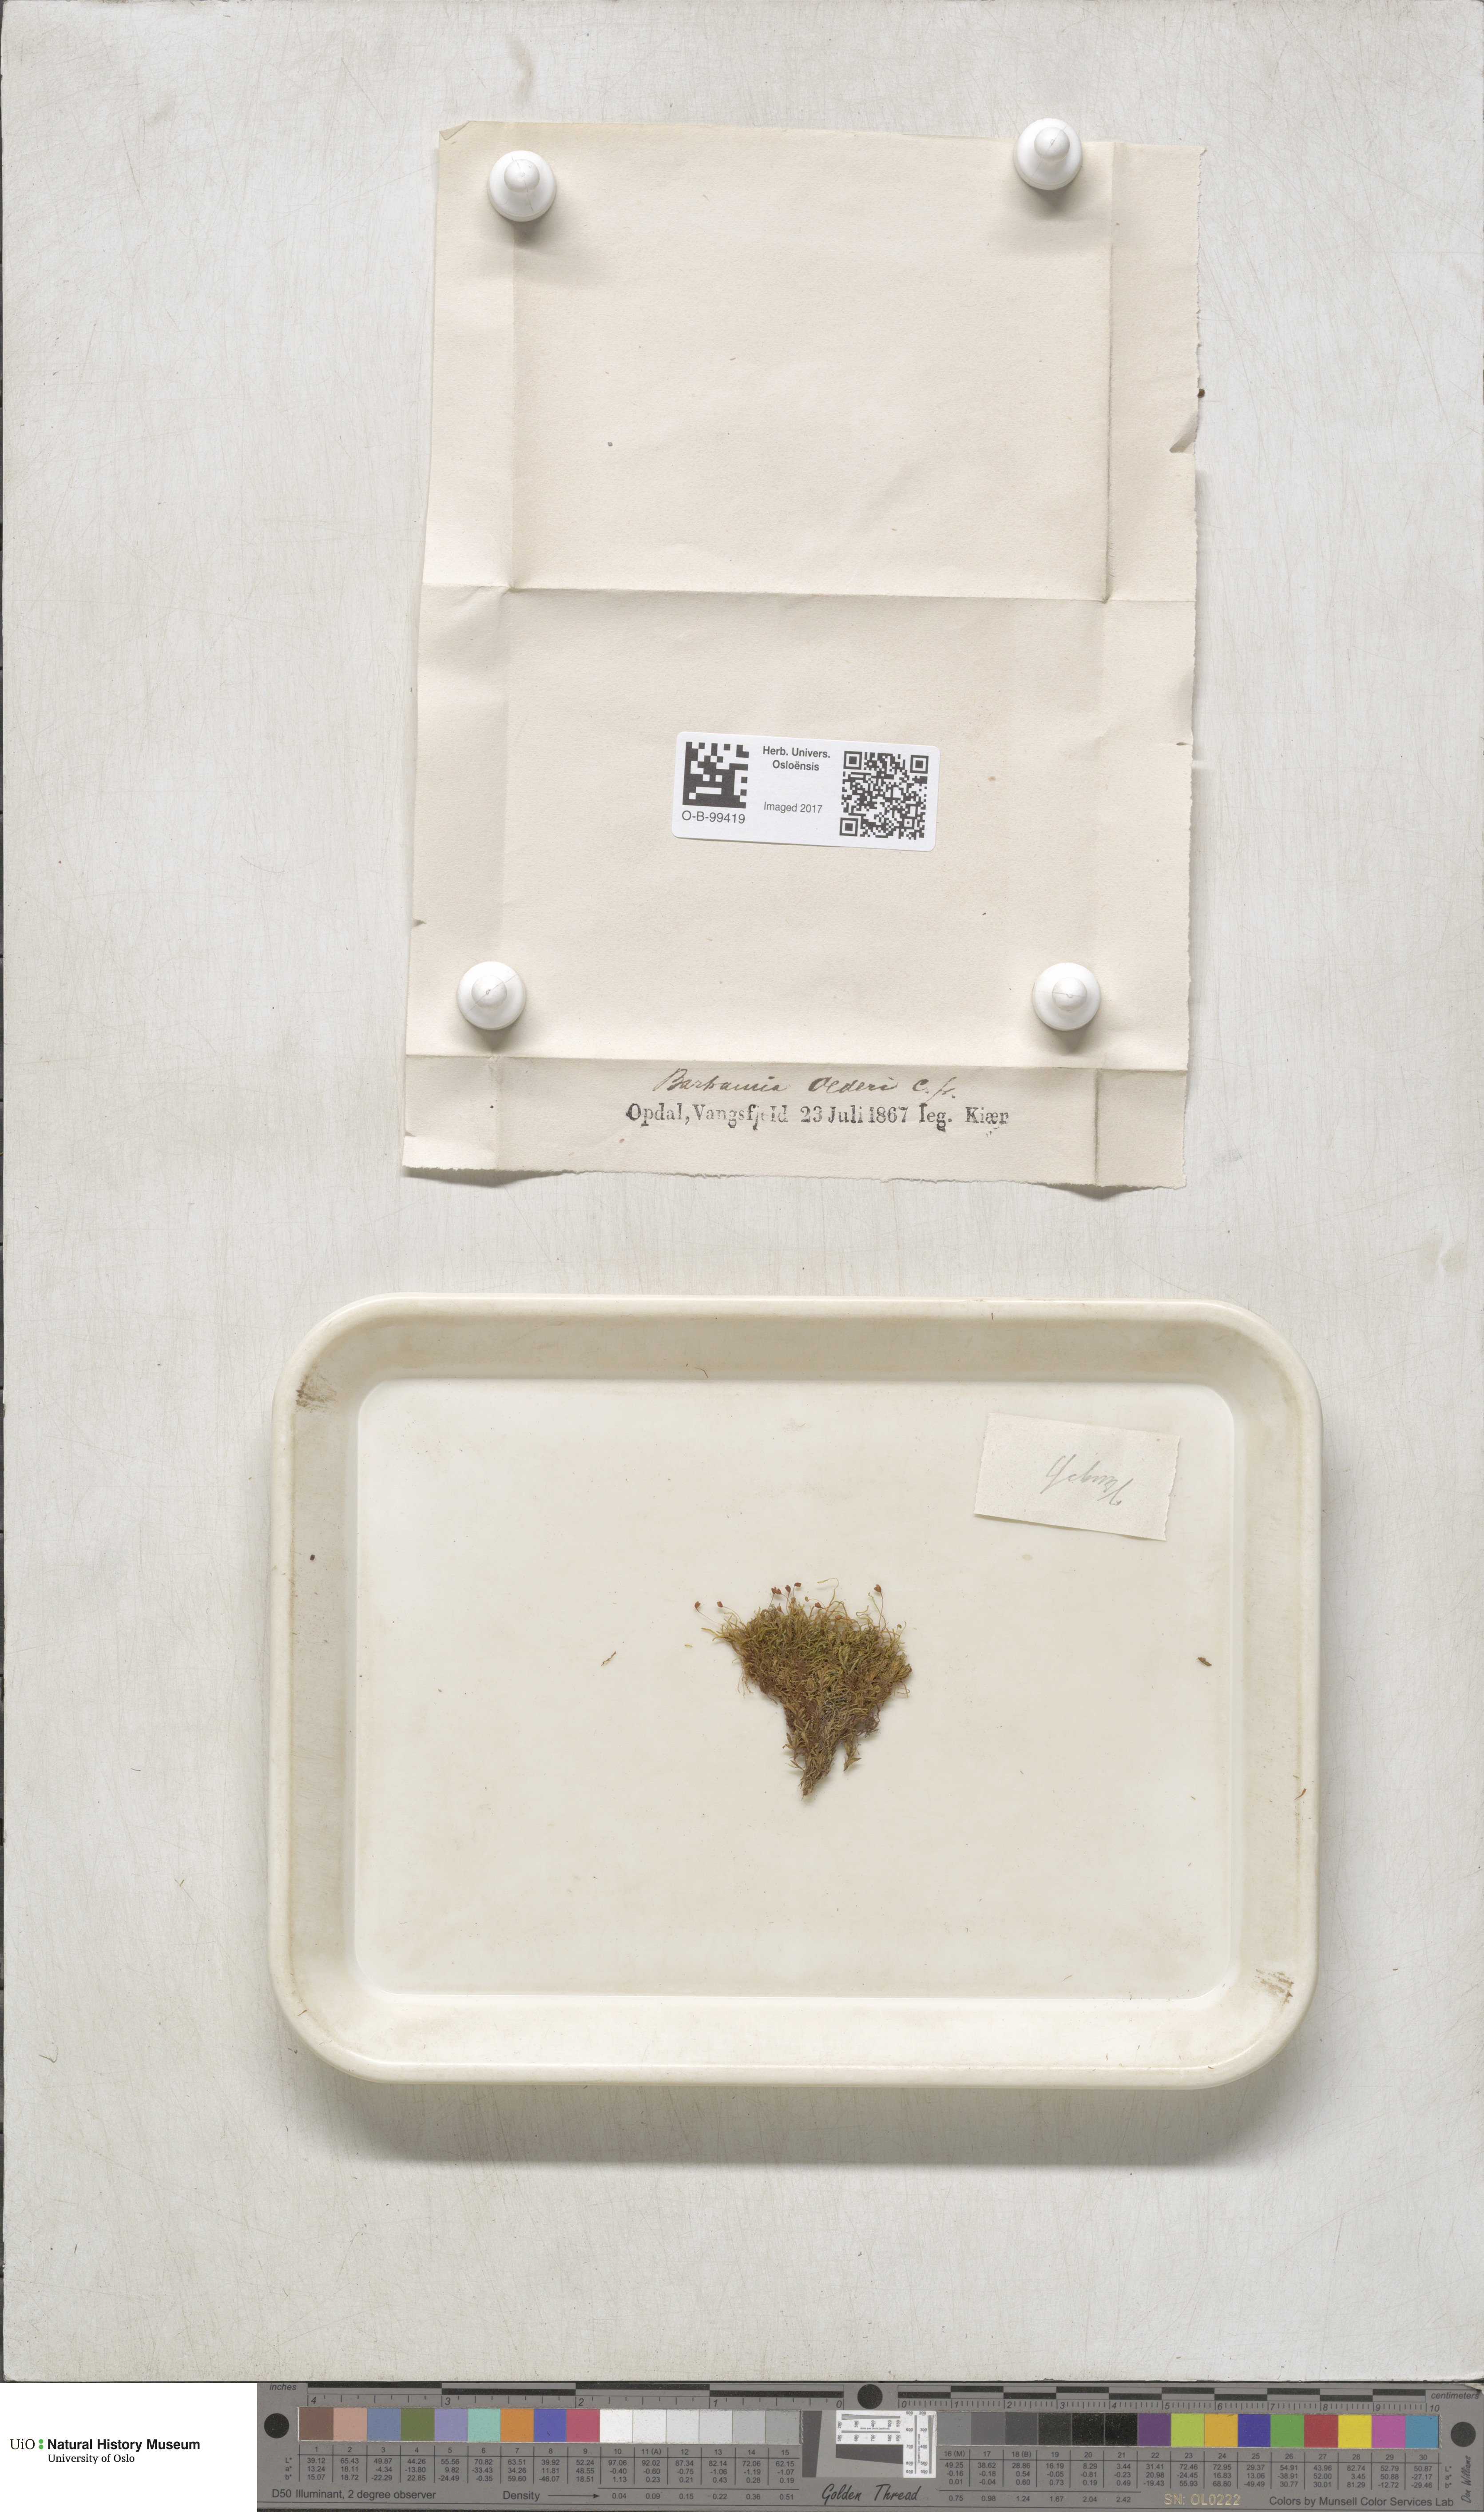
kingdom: Plantae
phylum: Bryophyta
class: Bryopsida
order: Bartramiales
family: Bartramiaceae
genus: Plagiopus
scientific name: Plagiopus oederianus
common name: Oeder's apple moss
